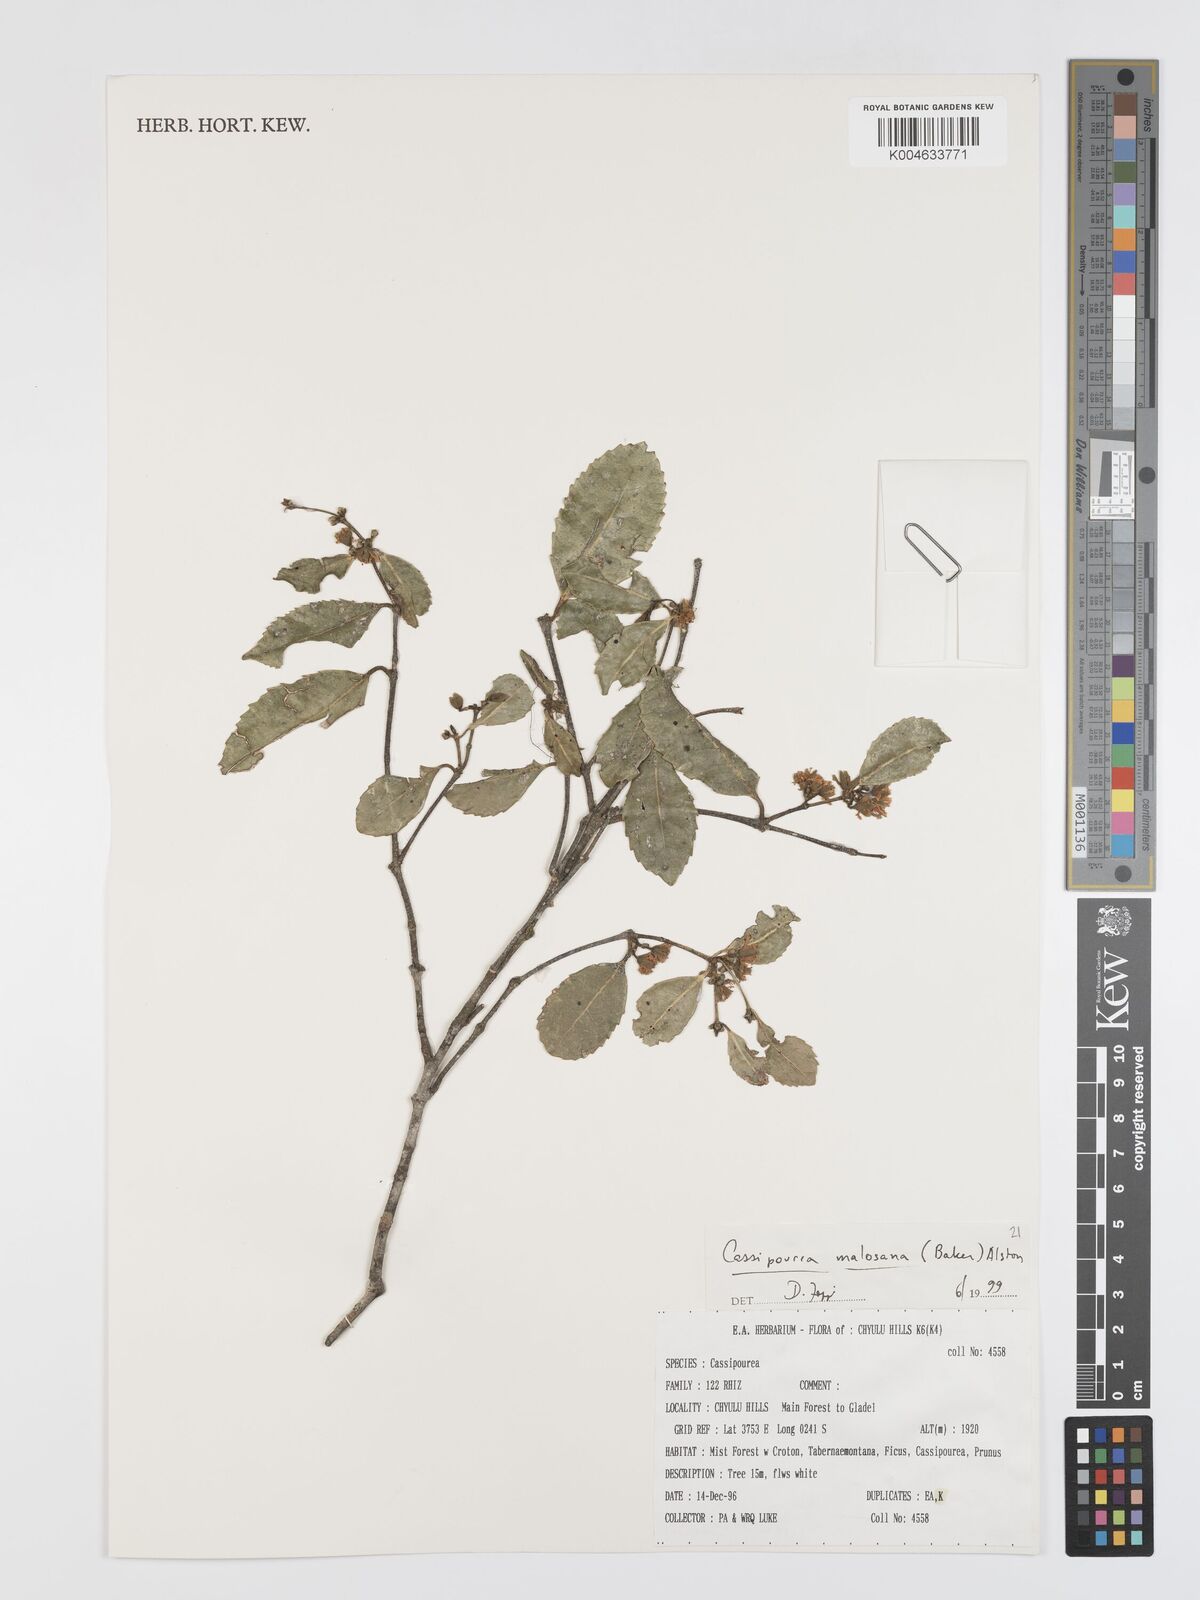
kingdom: Plantae
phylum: Tracheophyta
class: Magnoliopsida
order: Malpighiales
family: Rhizophoraceae
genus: Cassipourea
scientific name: Cassipourea malosana
